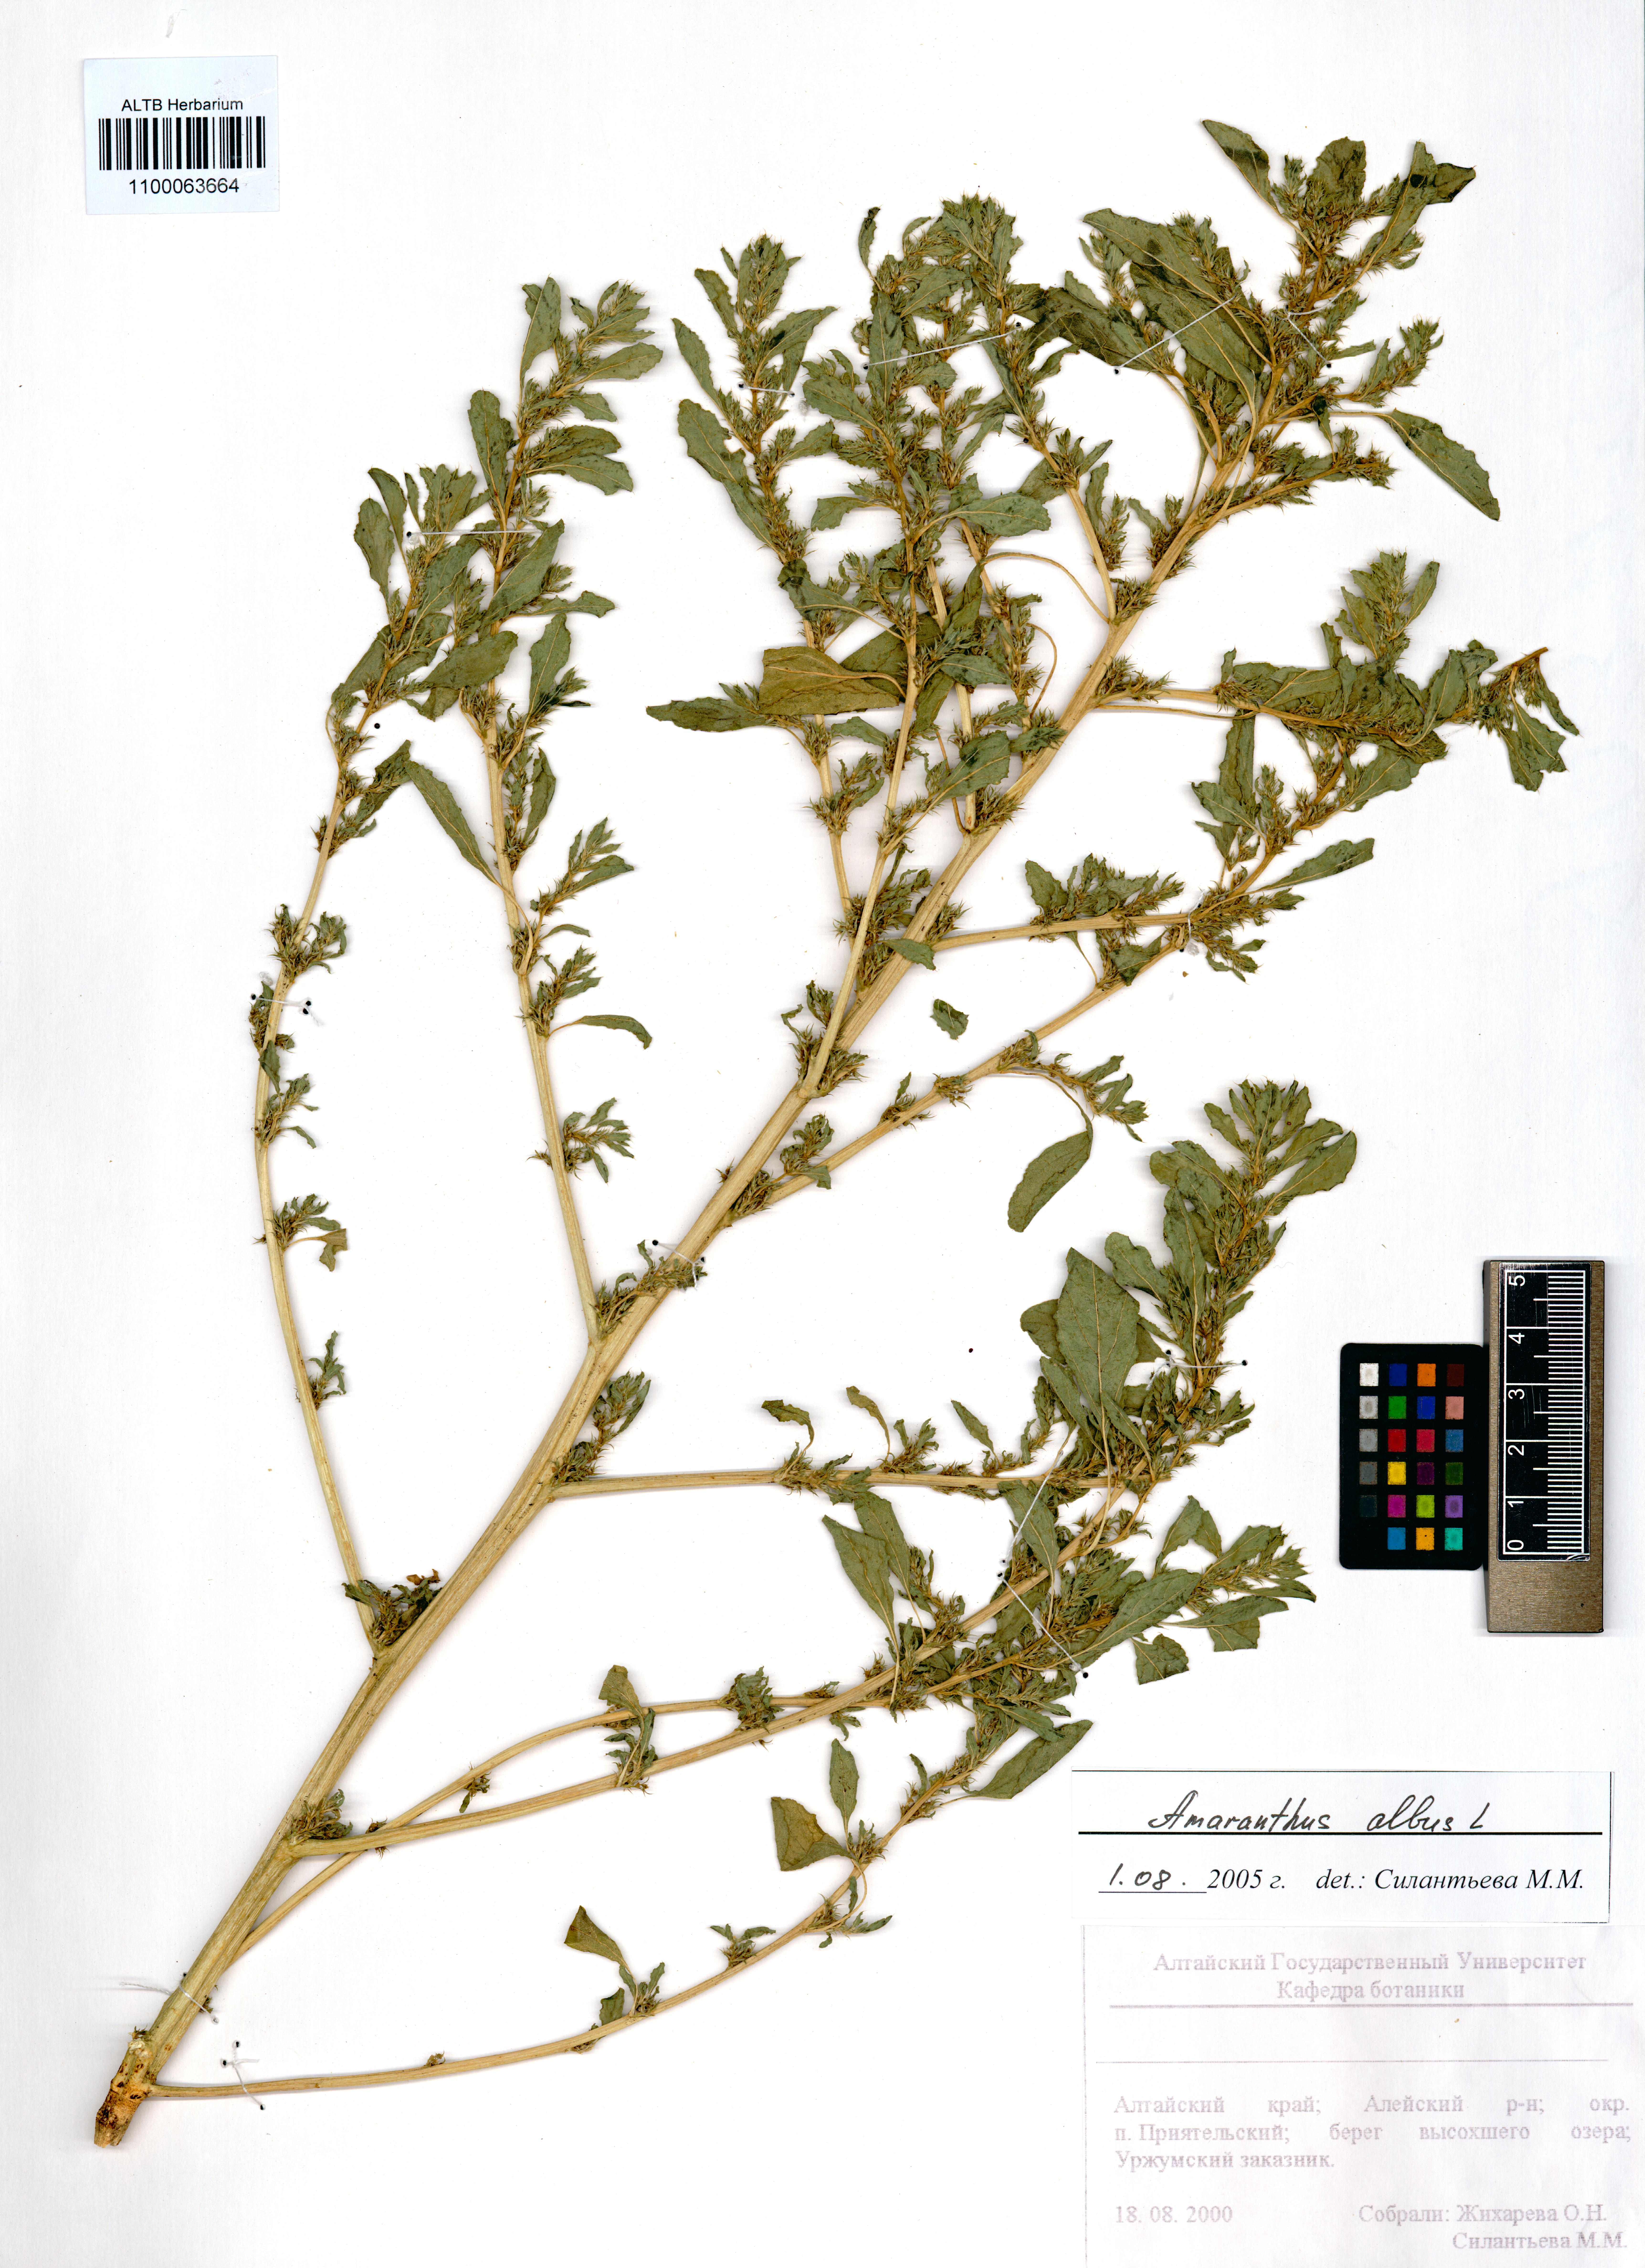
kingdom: Plantae
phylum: Tracheophyta
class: Magnoliopsida
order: Caryophyllales
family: Amaranthaceae
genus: Amaranthus
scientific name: Amaranthus albus
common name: White pigweed
